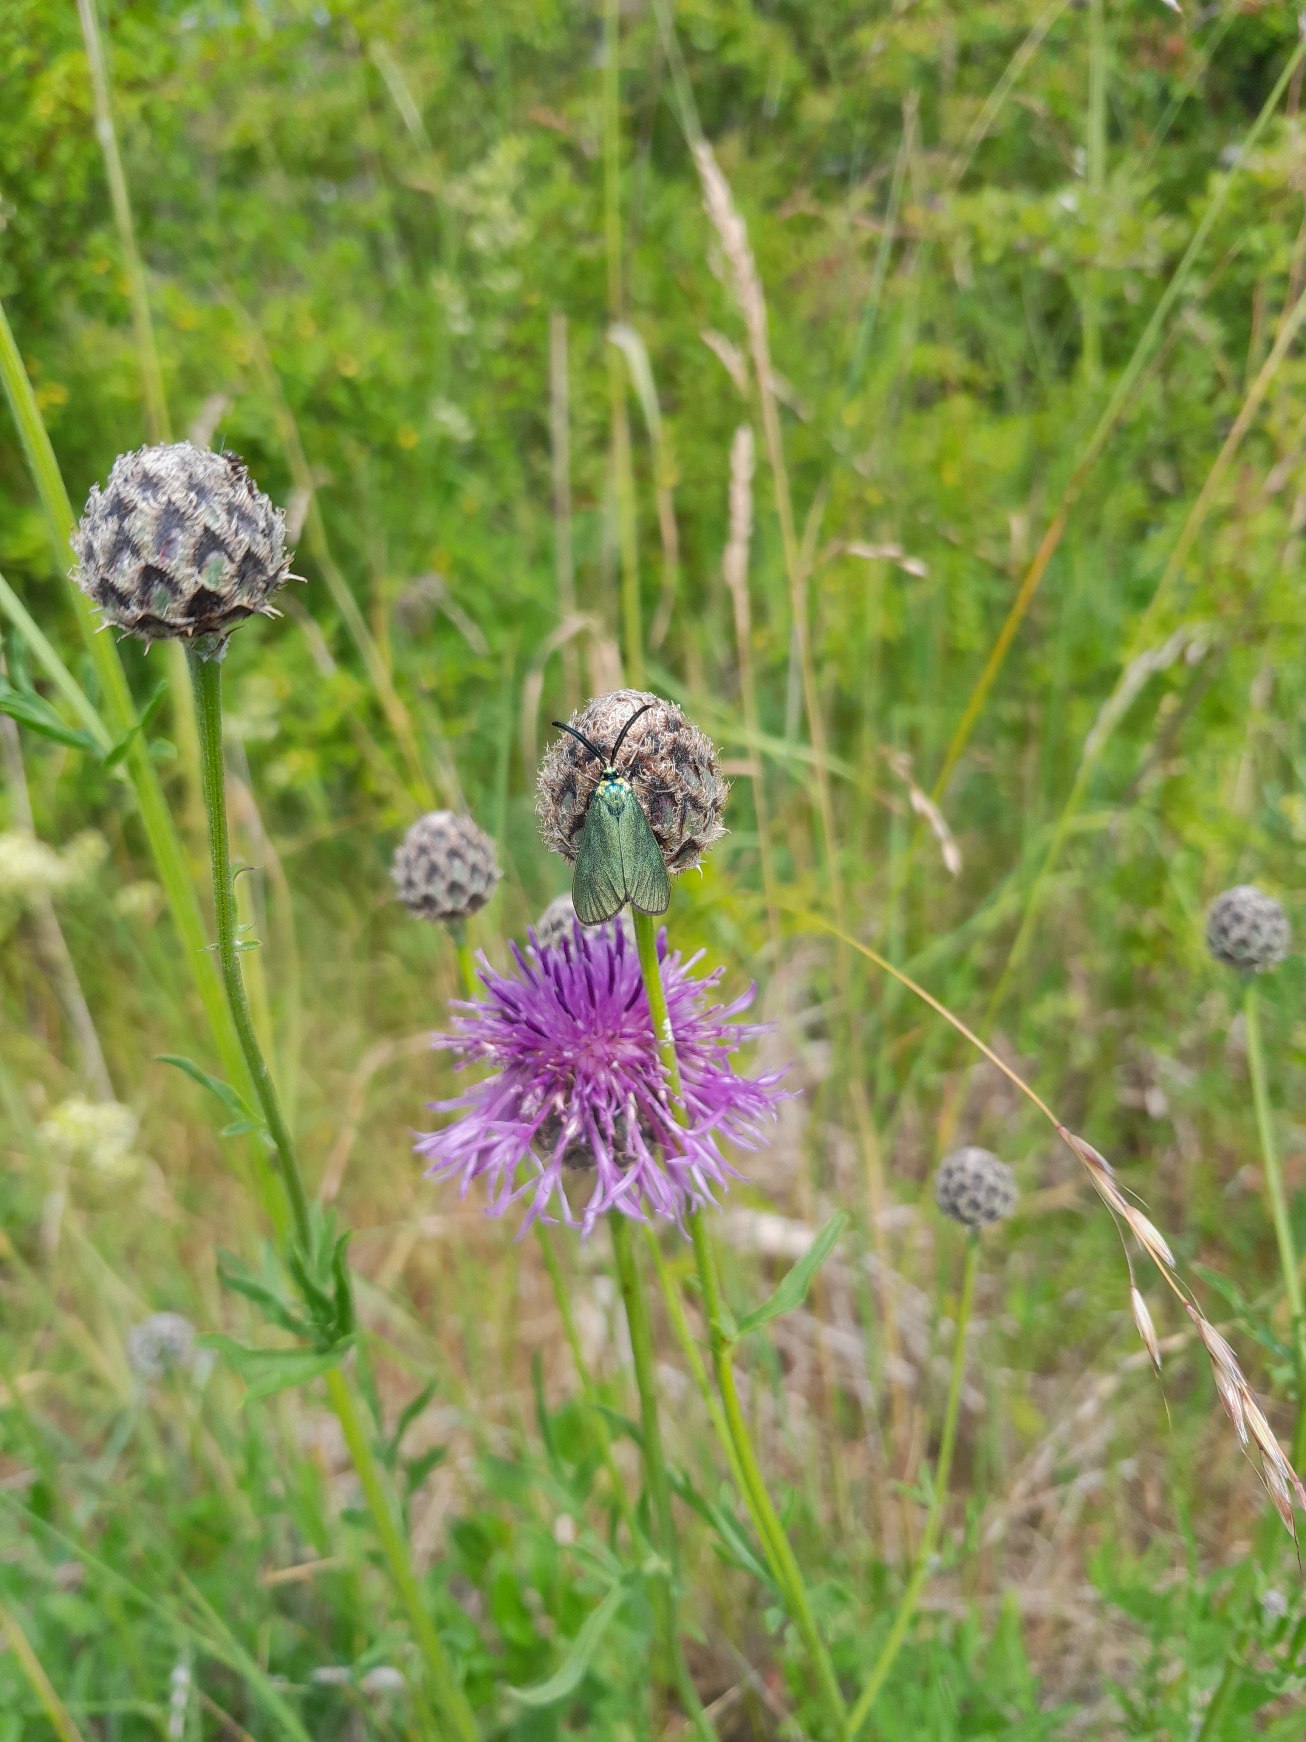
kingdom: Plantae
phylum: Tracheophyta
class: Magnoliopsida
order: Asterales
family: Asteraceae
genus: Centaurea
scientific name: Centaurea scabiosa
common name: Stor knopurt
